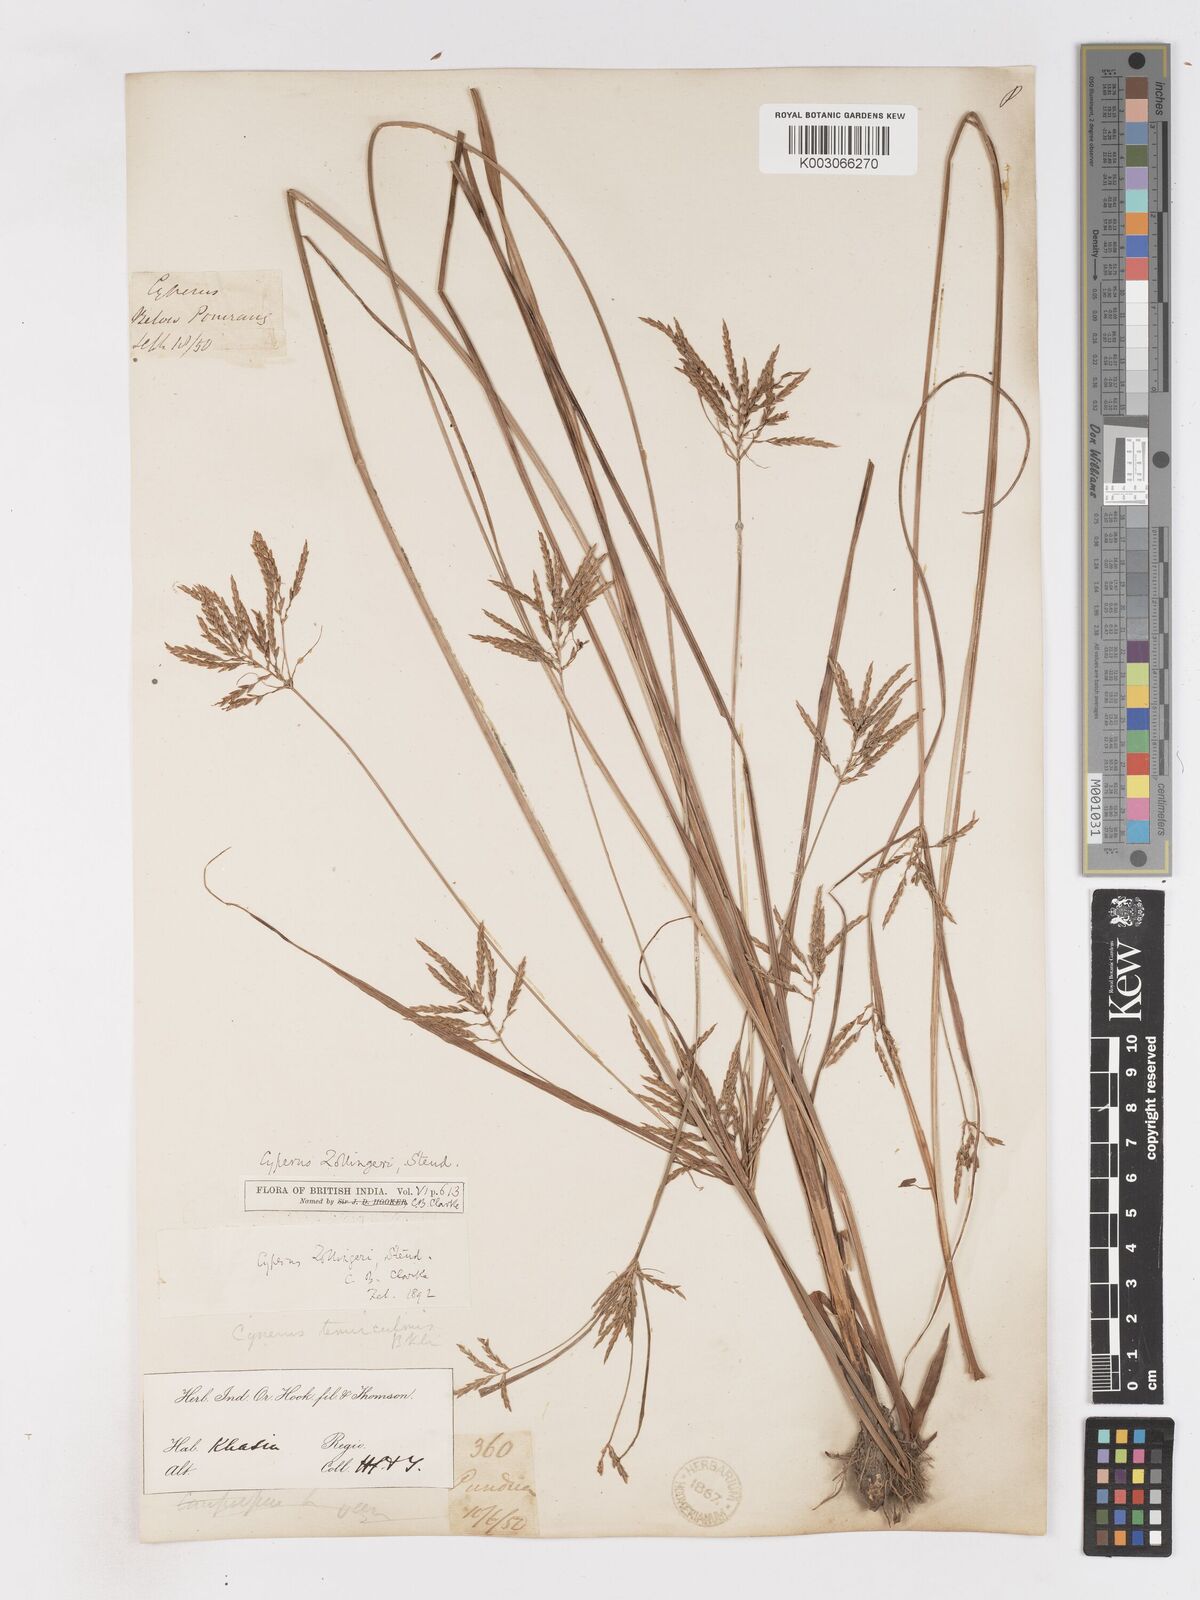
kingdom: Plantae
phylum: Tracheophyta
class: Liliopsida
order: Poales
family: Cyperaceae
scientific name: Cyperaceae
